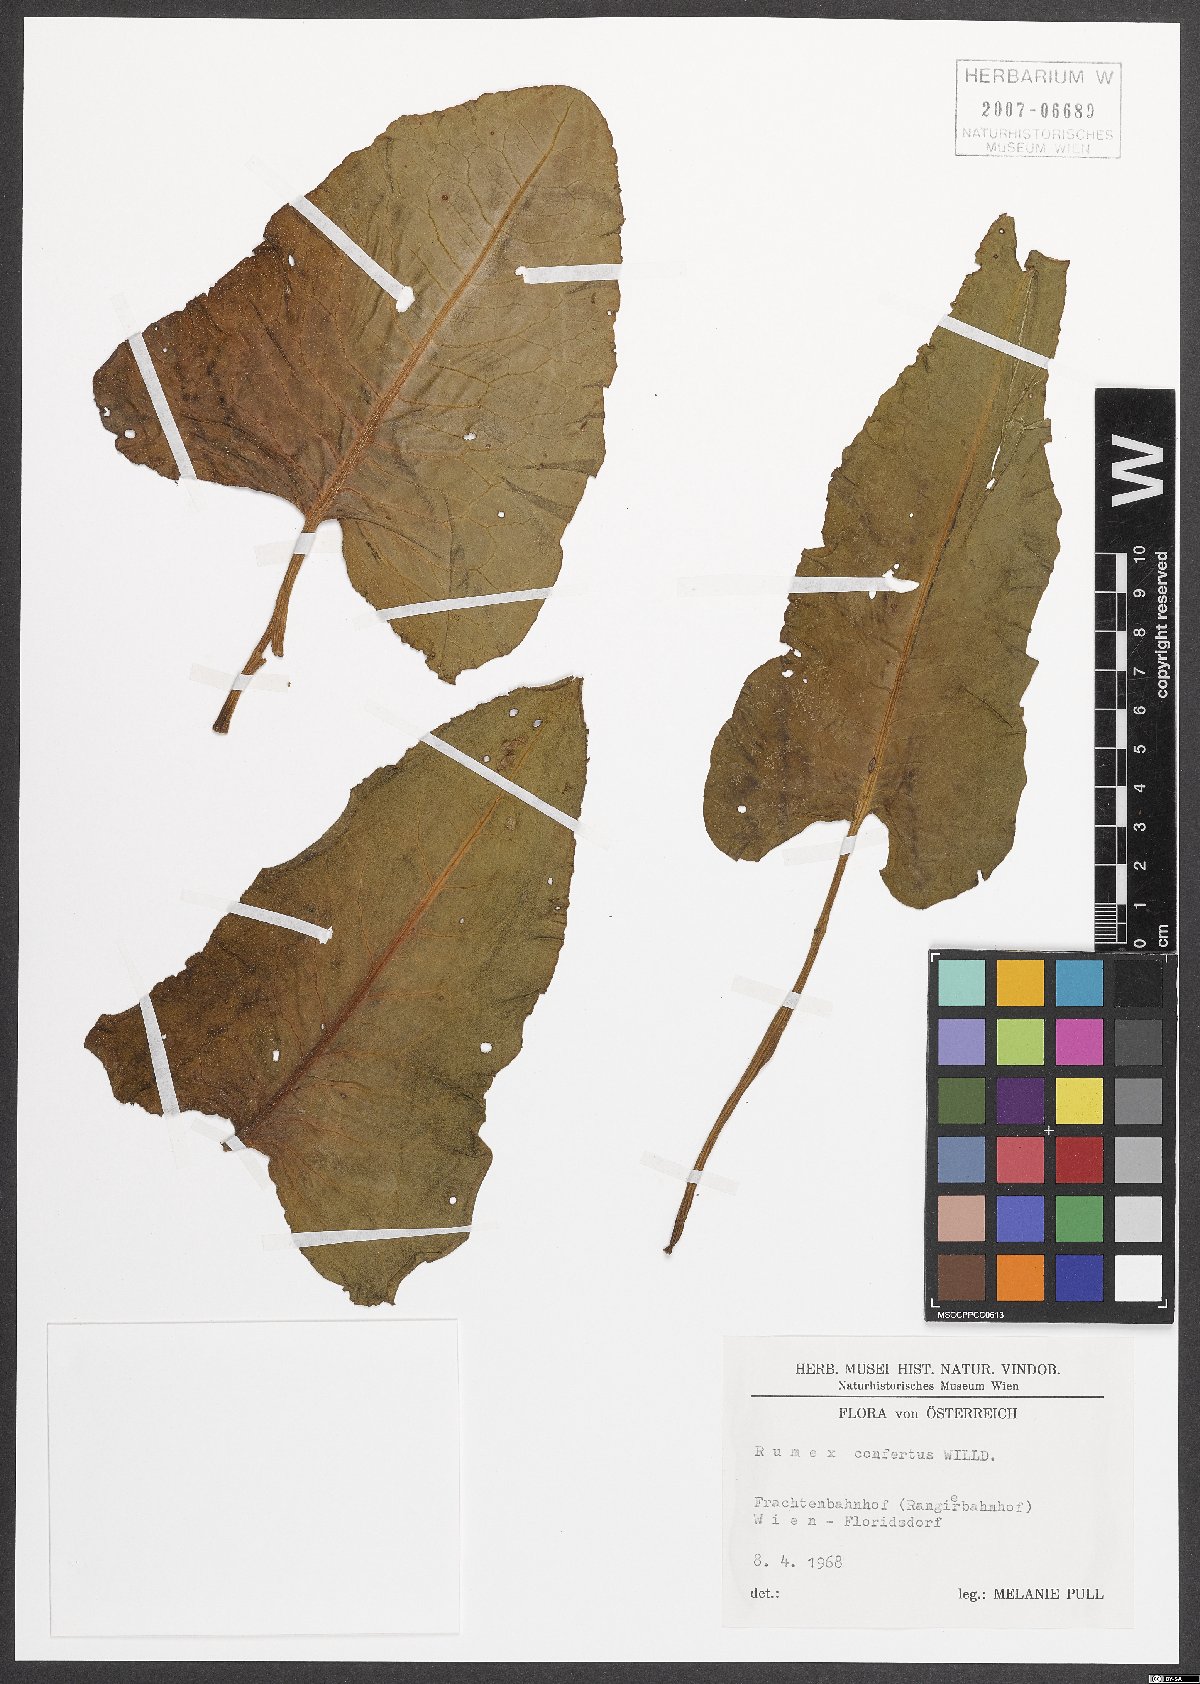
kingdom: Plantae
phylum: Tracheophyta
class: Magnoliopsida
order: Caryophyllales
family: Polygonaceae
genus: Rumex
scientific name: Rumex confertus
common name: Russian dock
